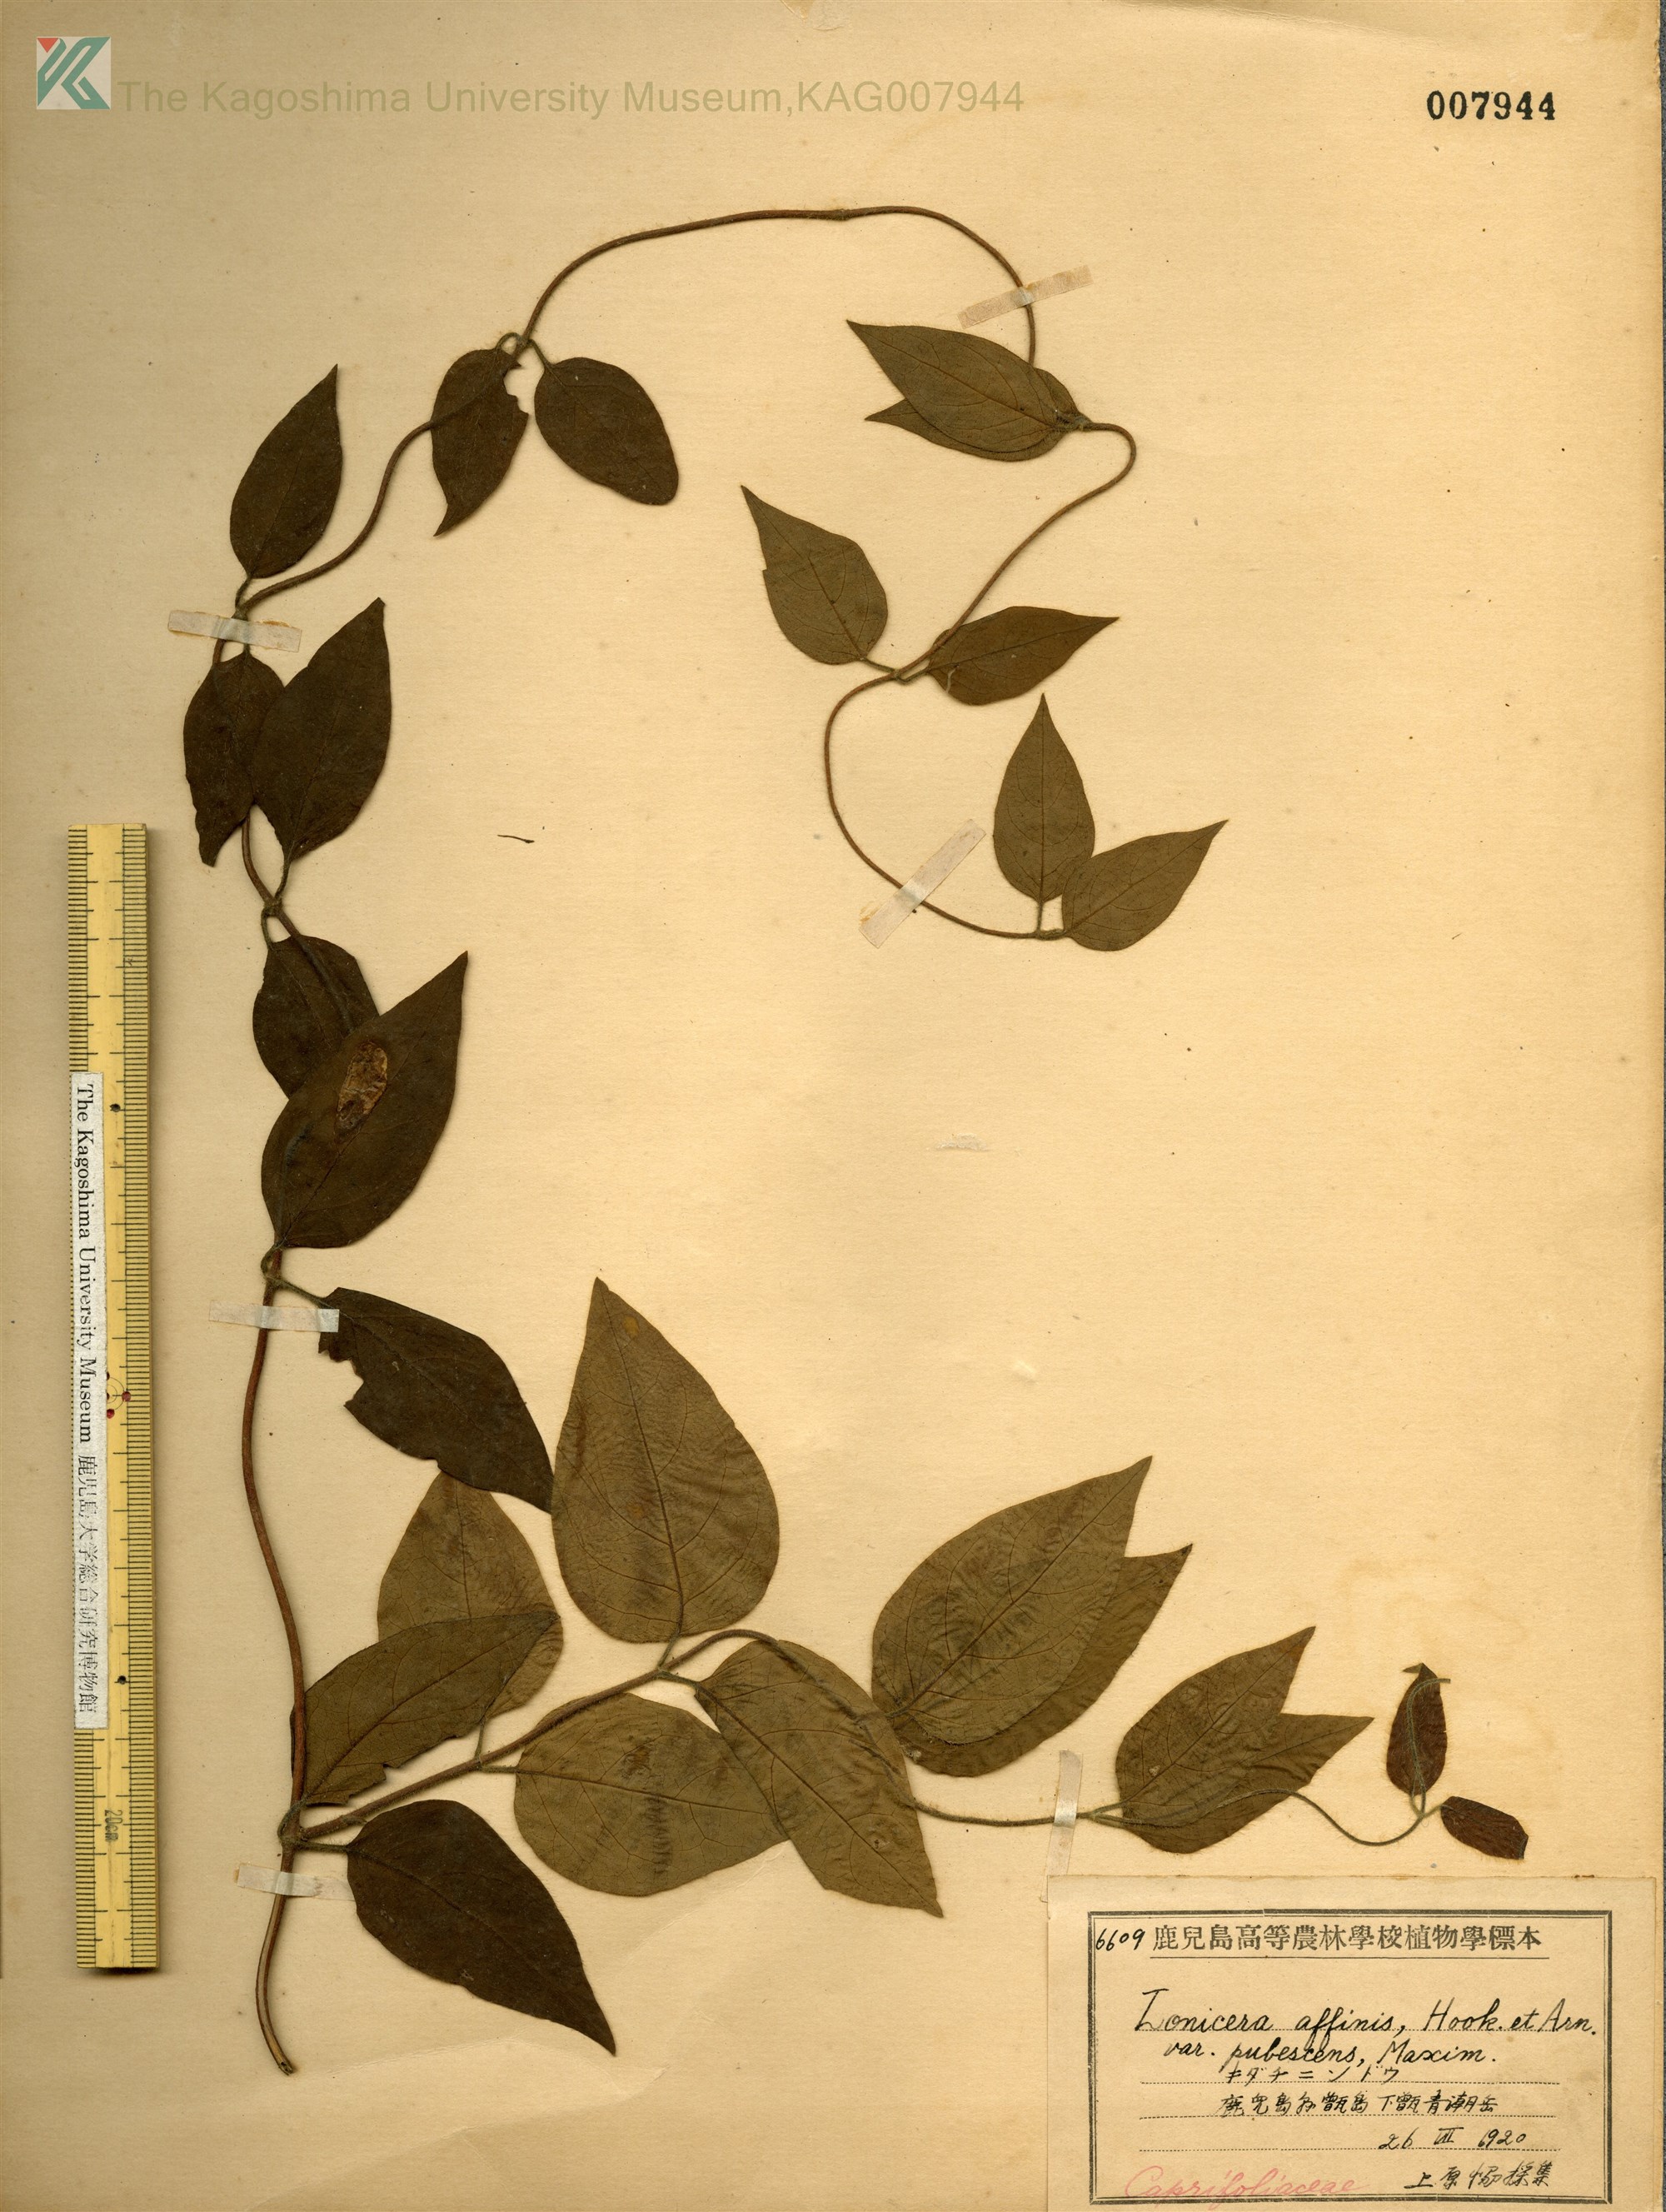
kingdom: Plantae
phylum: Tracheophyta
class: Magnoliopsida
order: Dipsacales
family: Caprifoliaceae
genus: Lonicera
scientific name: Lonicera affinis
